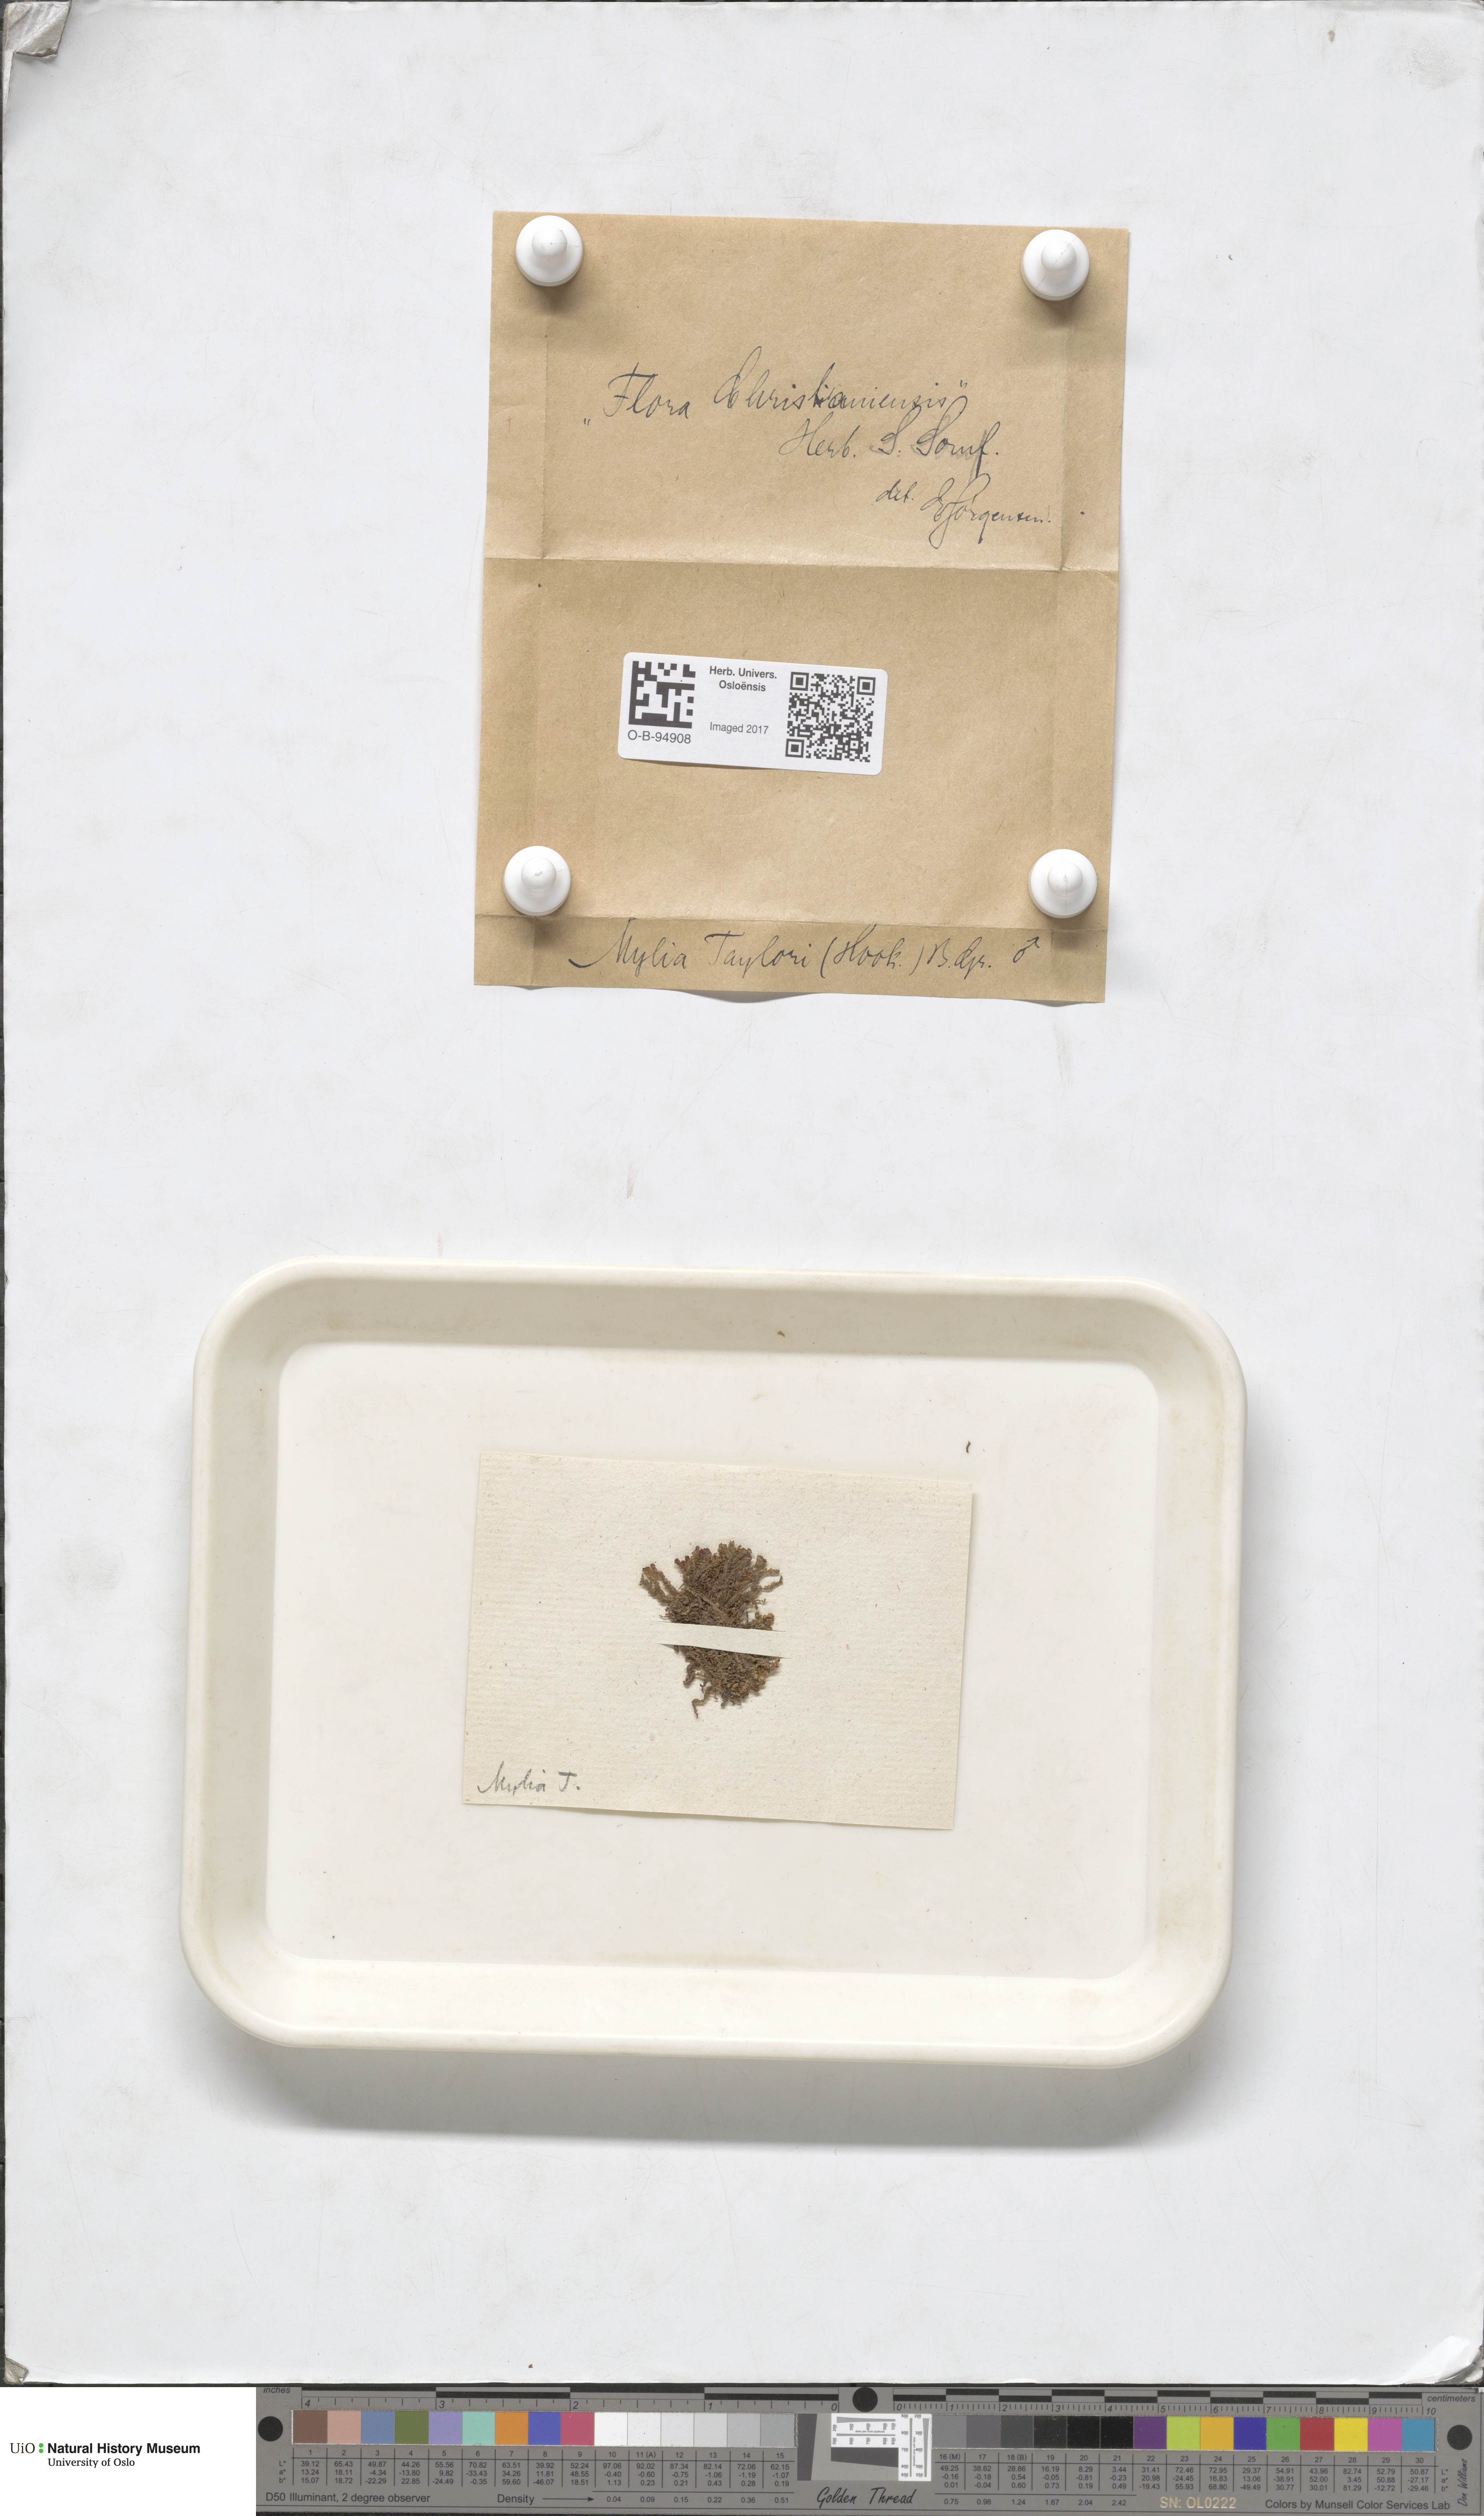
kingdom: Plantae
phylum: Marchantiophyta
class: Jungermanniopsida
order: Jungermanniales
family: Myliaceae
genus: Mylia
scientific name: Mylia taylorii
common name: Taylor s flapwort
